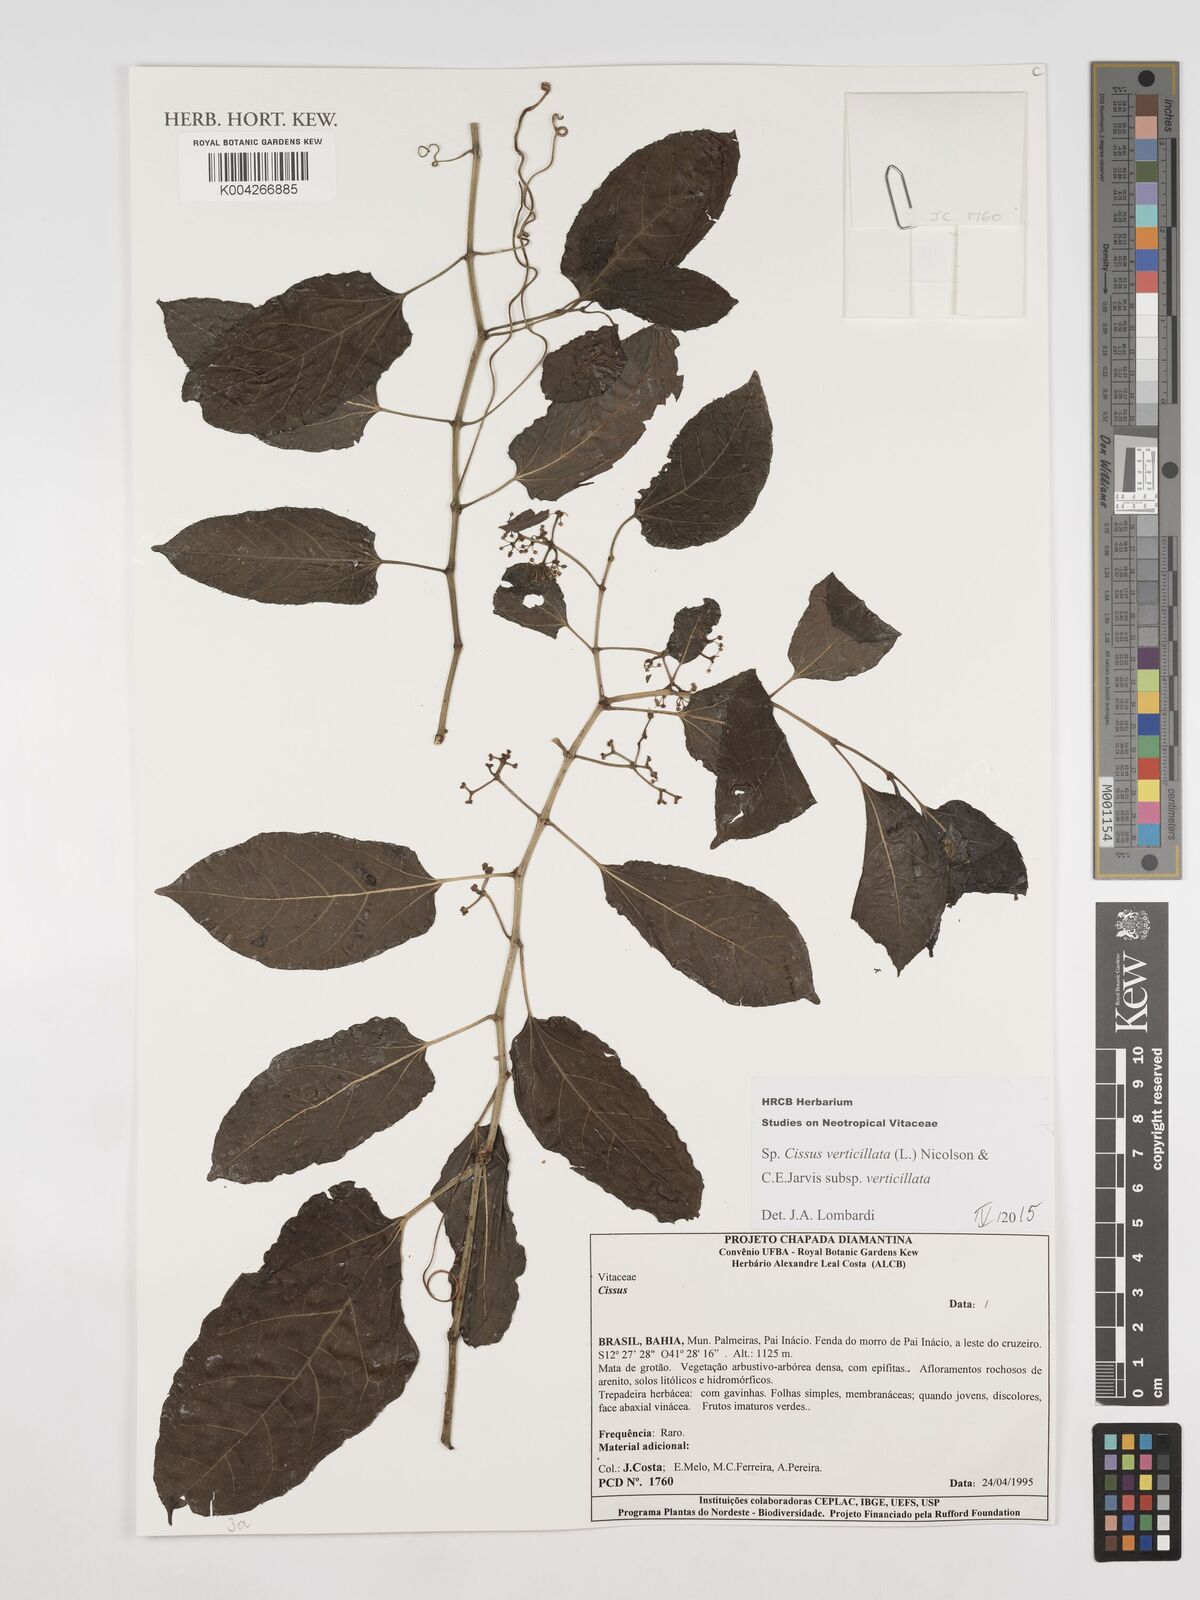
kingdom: Plantae
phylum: Tracheophyta
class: Magnoliopsida
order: Vitales
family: Vitaceae
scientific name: Vitaceae
